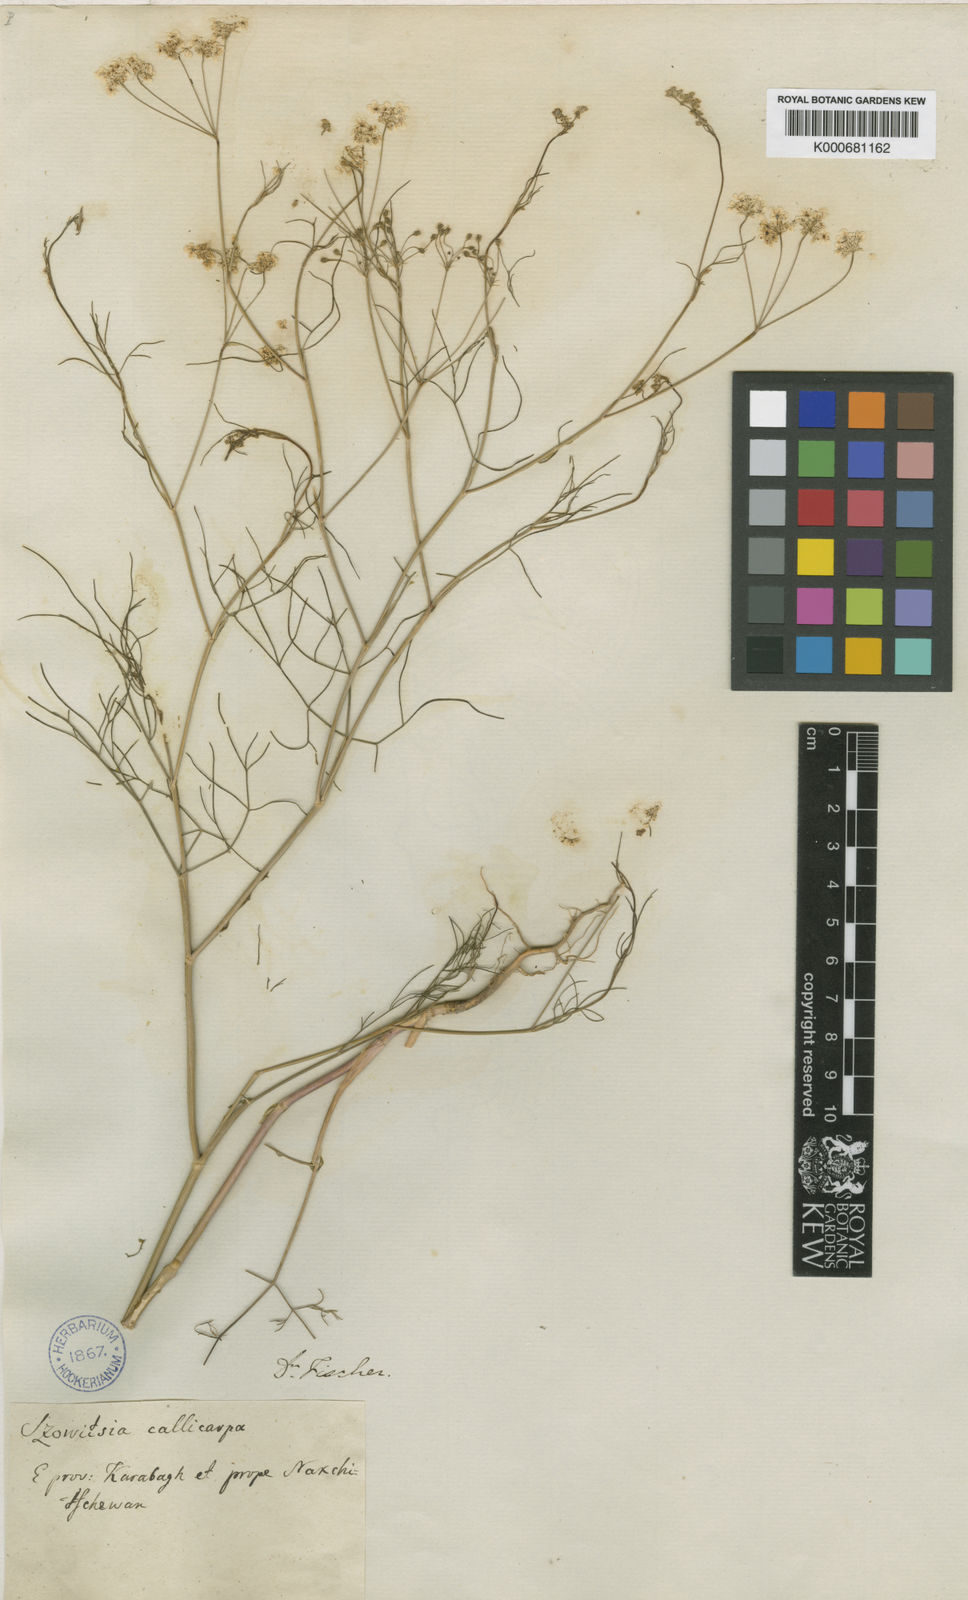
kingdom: Plantae
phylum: Tracheophyta
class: Magnoliopsida
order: Apiales
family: Apiaceae
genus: Szovitsia
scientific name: Szovitsia callicarpa
